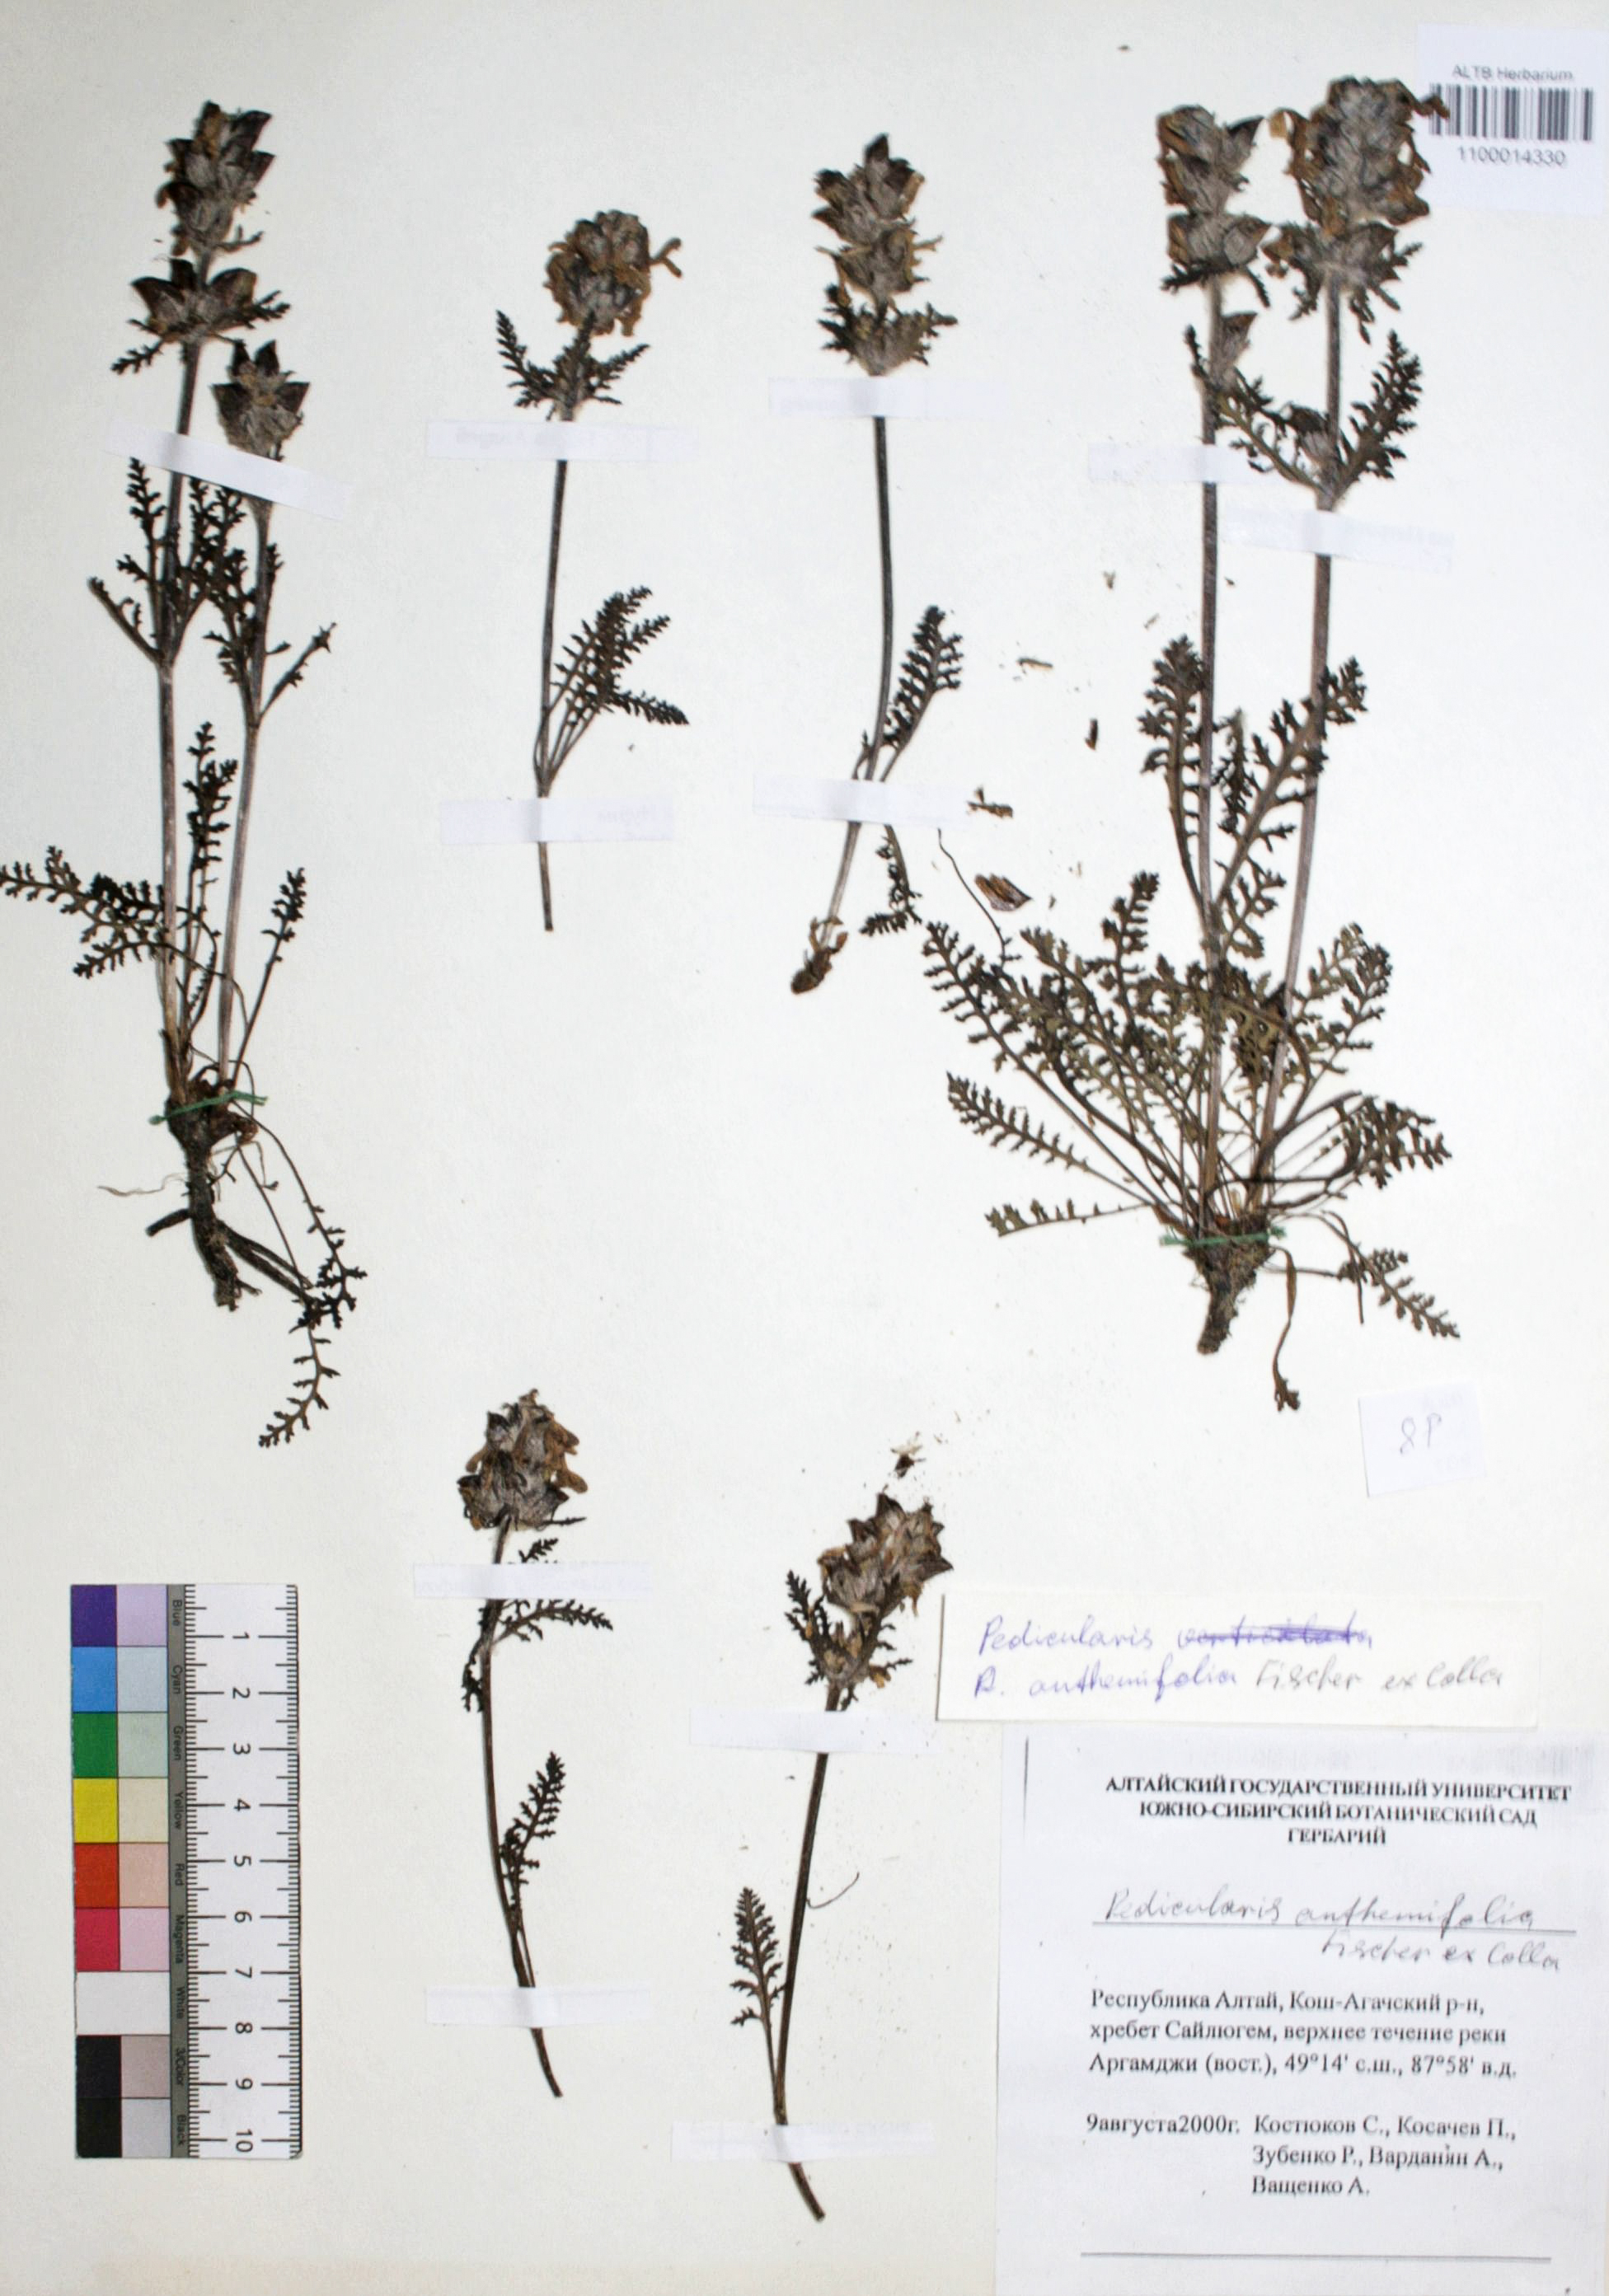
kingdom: Plantae
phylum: Tracheophyta
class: Magnoliopsida
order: Lamiales
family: Orobanchaceae
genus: Pedicularis
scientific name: Pedicularis anthemifolia
